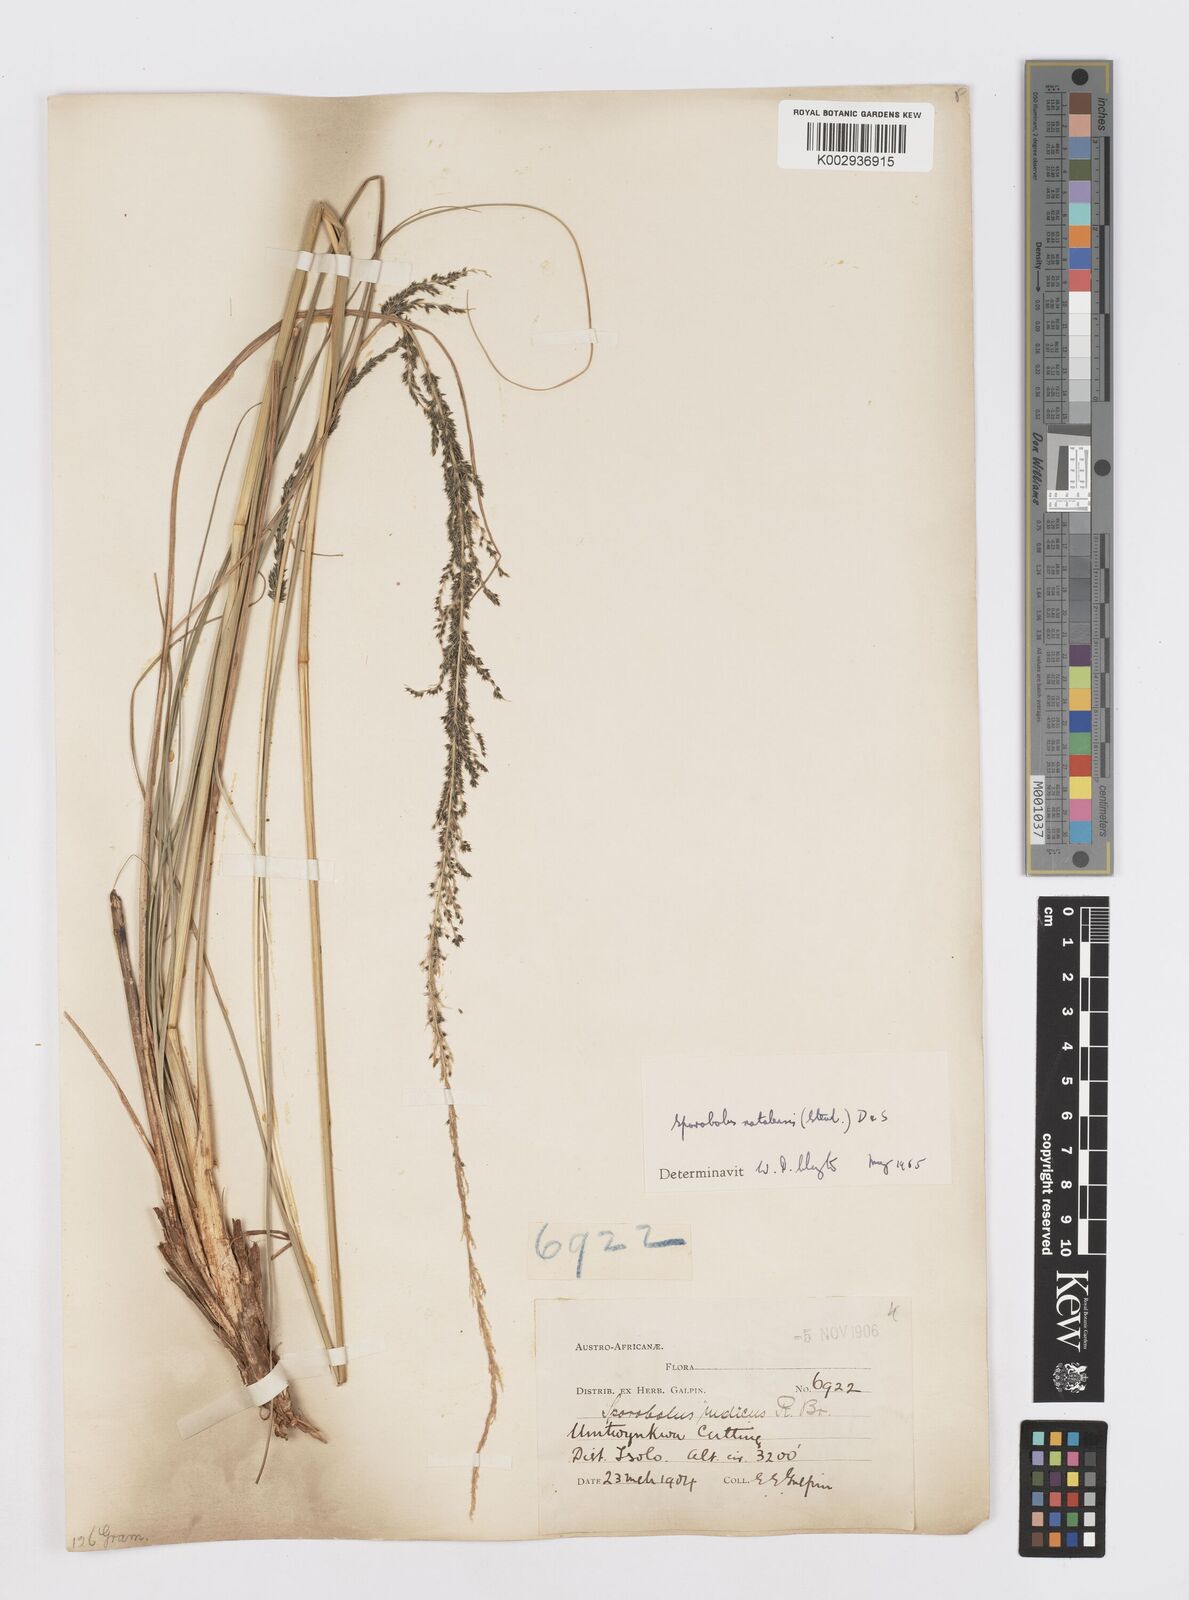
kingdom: Plantae
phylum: Tracheophyta
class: Liliopsida
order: Poales
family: Poaceae
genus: Sporobolus
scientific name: Sporobolus natalensis
